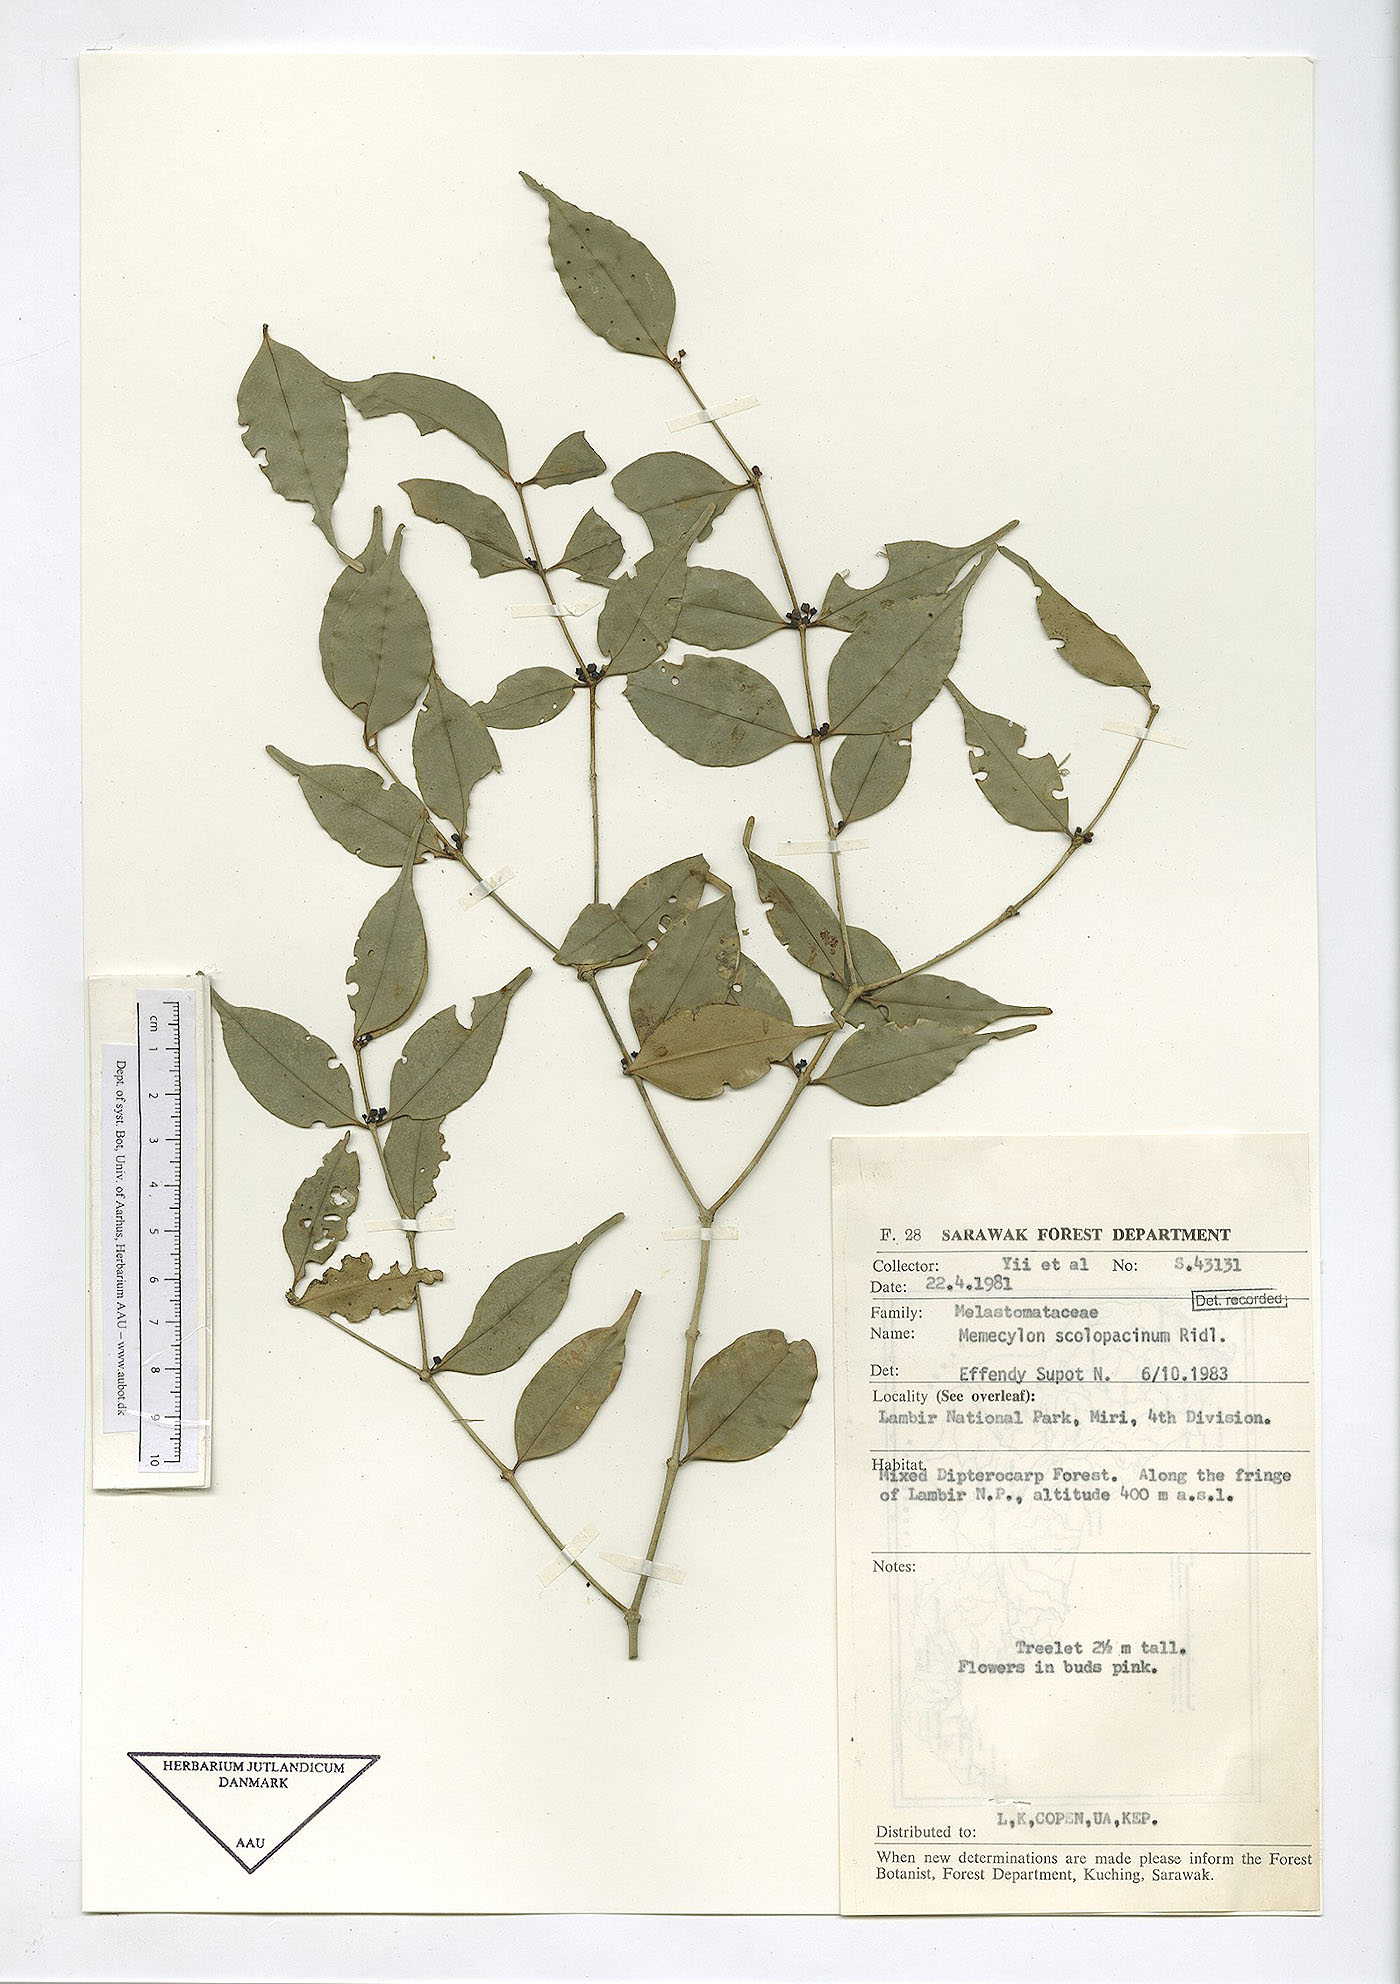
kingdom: Plantae
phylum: Tracheophyta
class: Magnoliopsida
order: Myrtales
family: Melastomataceae
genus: Memecylon
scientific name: Memecylon scolopacinum
